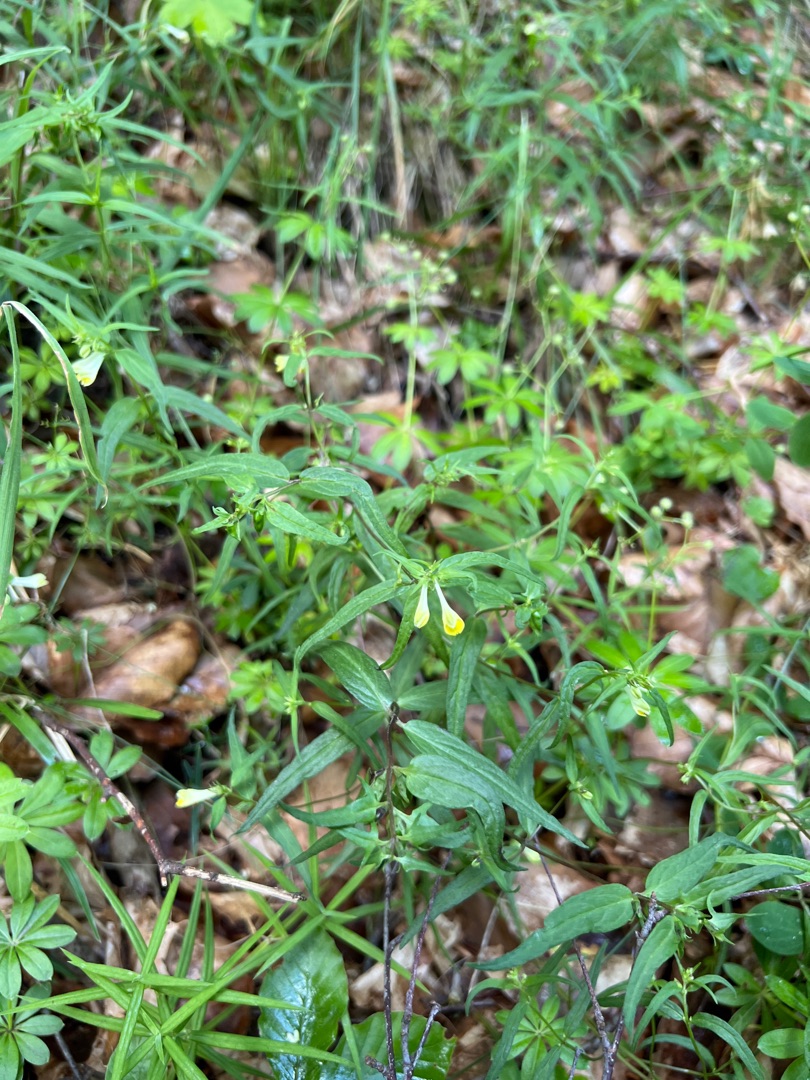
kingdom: Plantae
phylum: Tracheophyta
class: Magnoliopsida
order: Lamiales
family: Orobanchaceae
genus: Melampyrum
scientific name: Melampyrum pratense
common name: Almindelig kohvede
